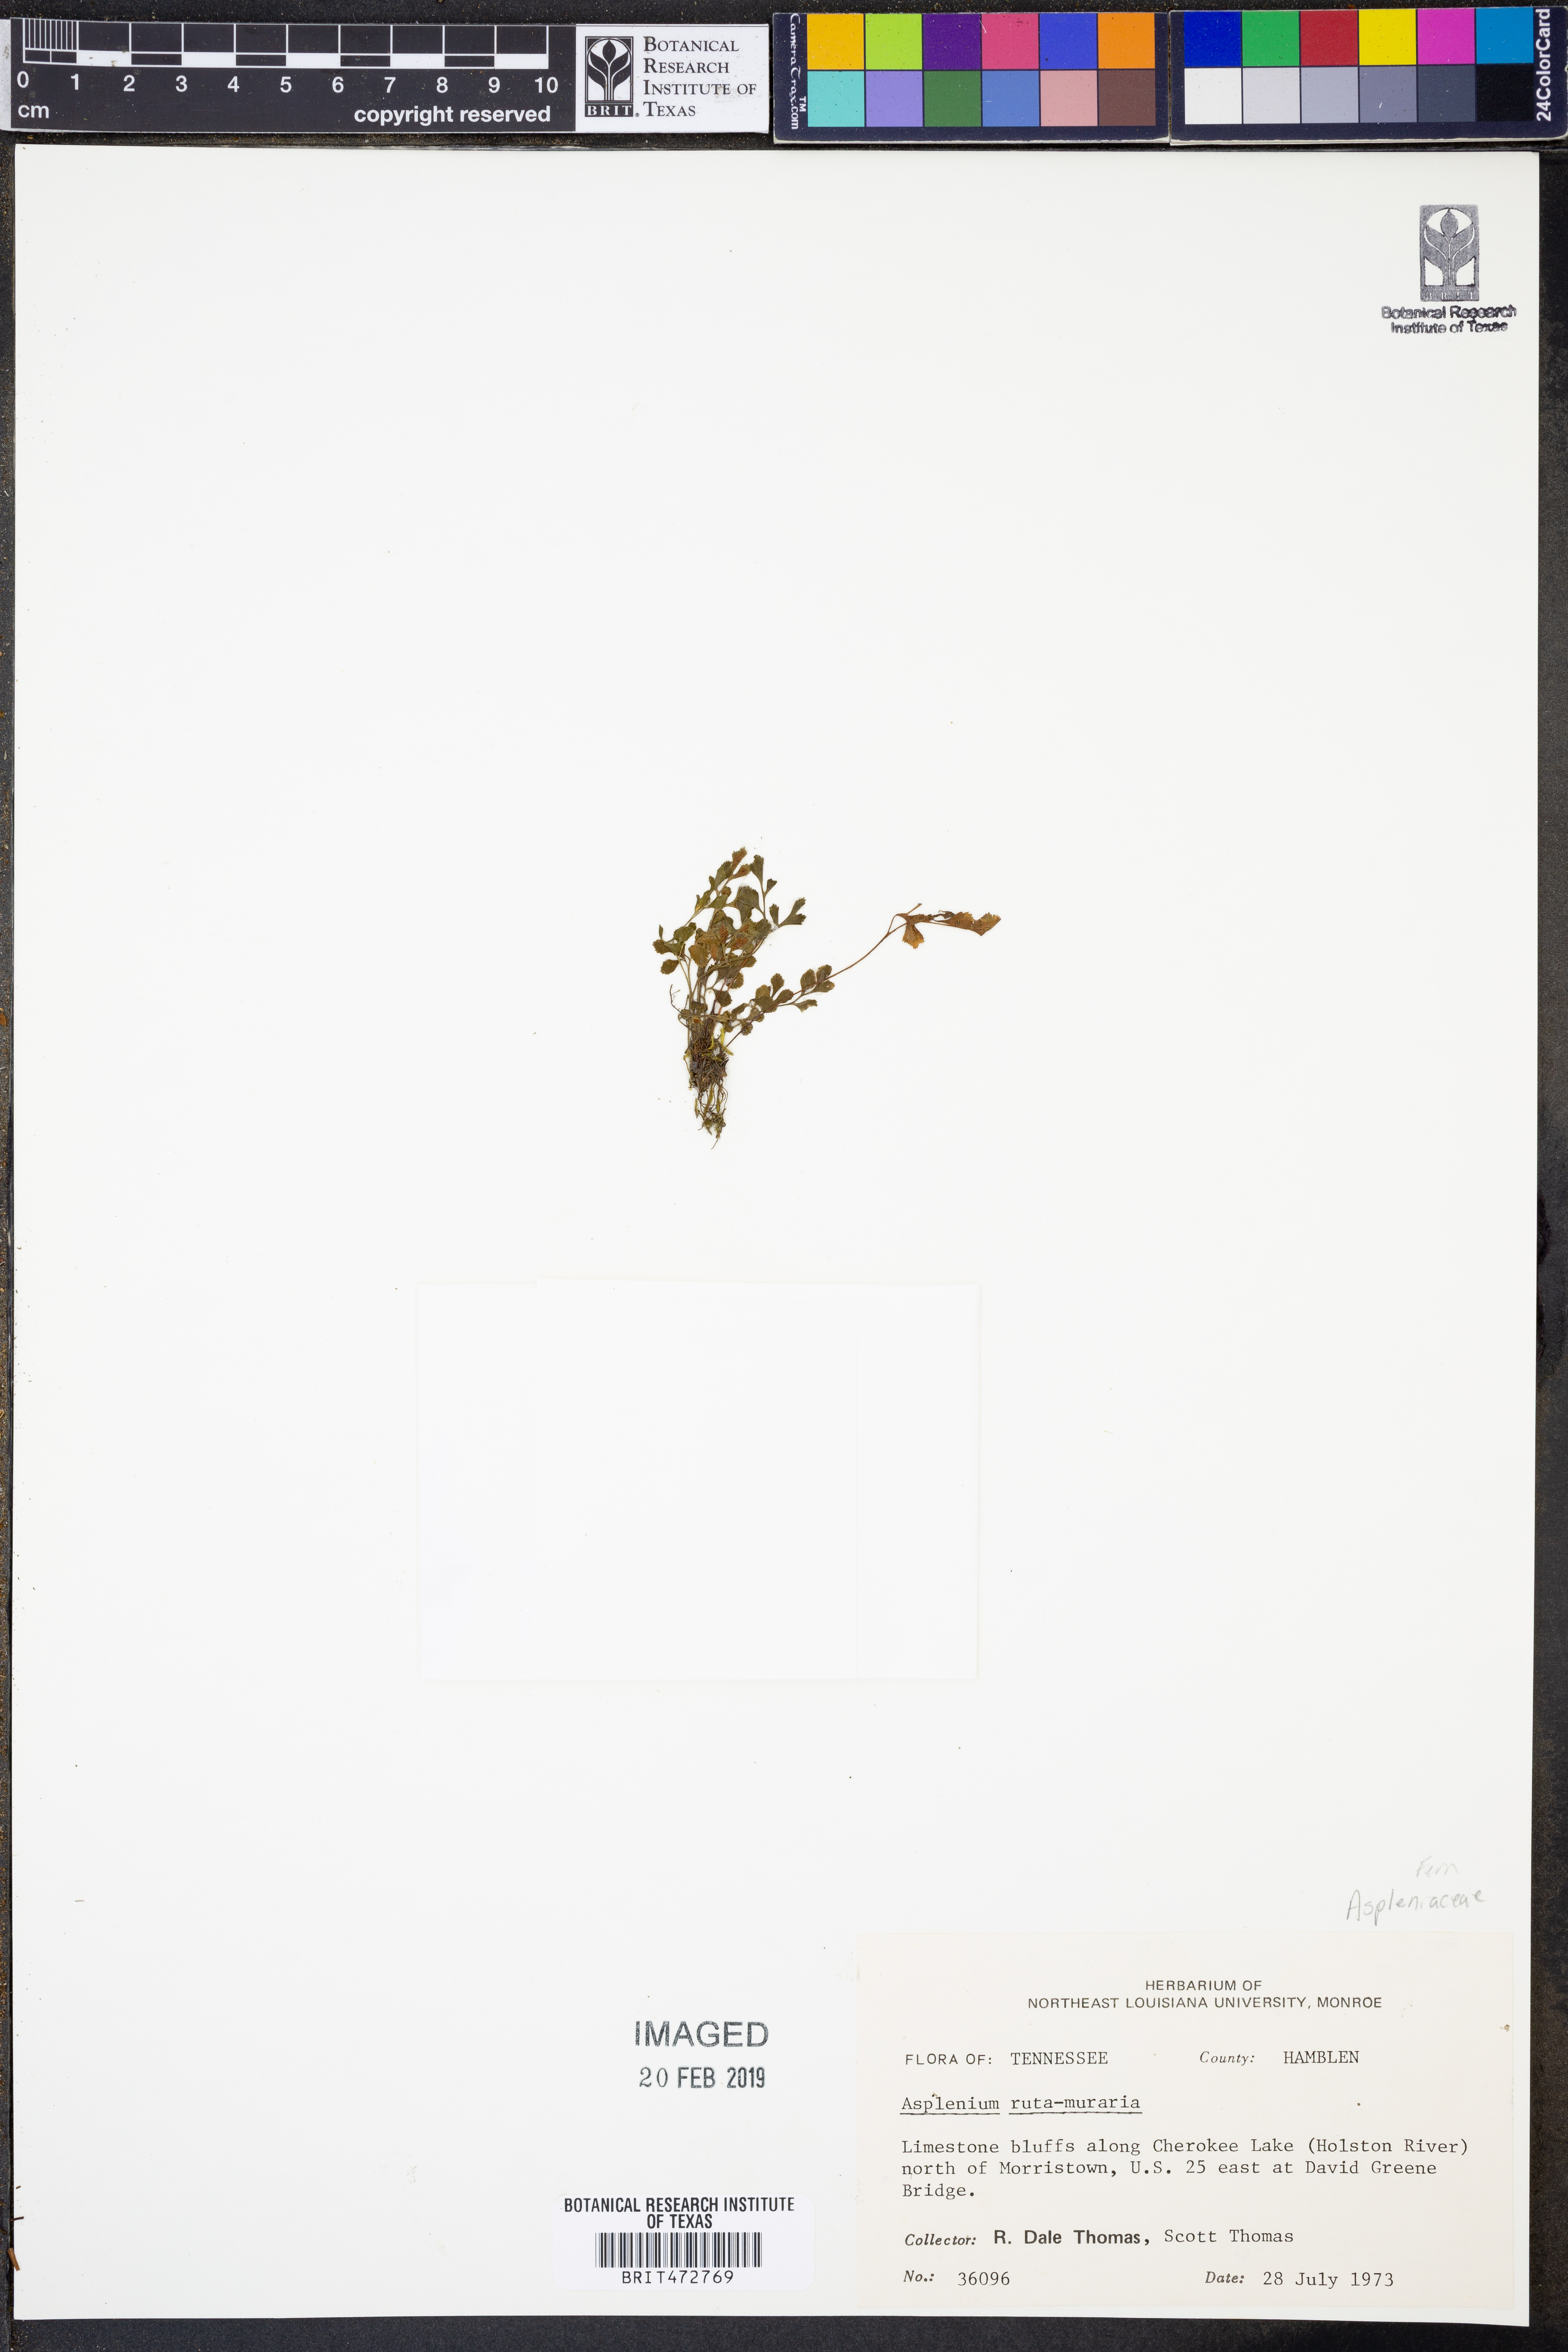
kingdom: Plantae
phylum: Tracheophyta
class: Polypodiopsida
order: Polypodiales
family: Aspleniaceae
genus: Asplenium
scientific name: Asplenium ruta-muraria
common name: Wall-rue
